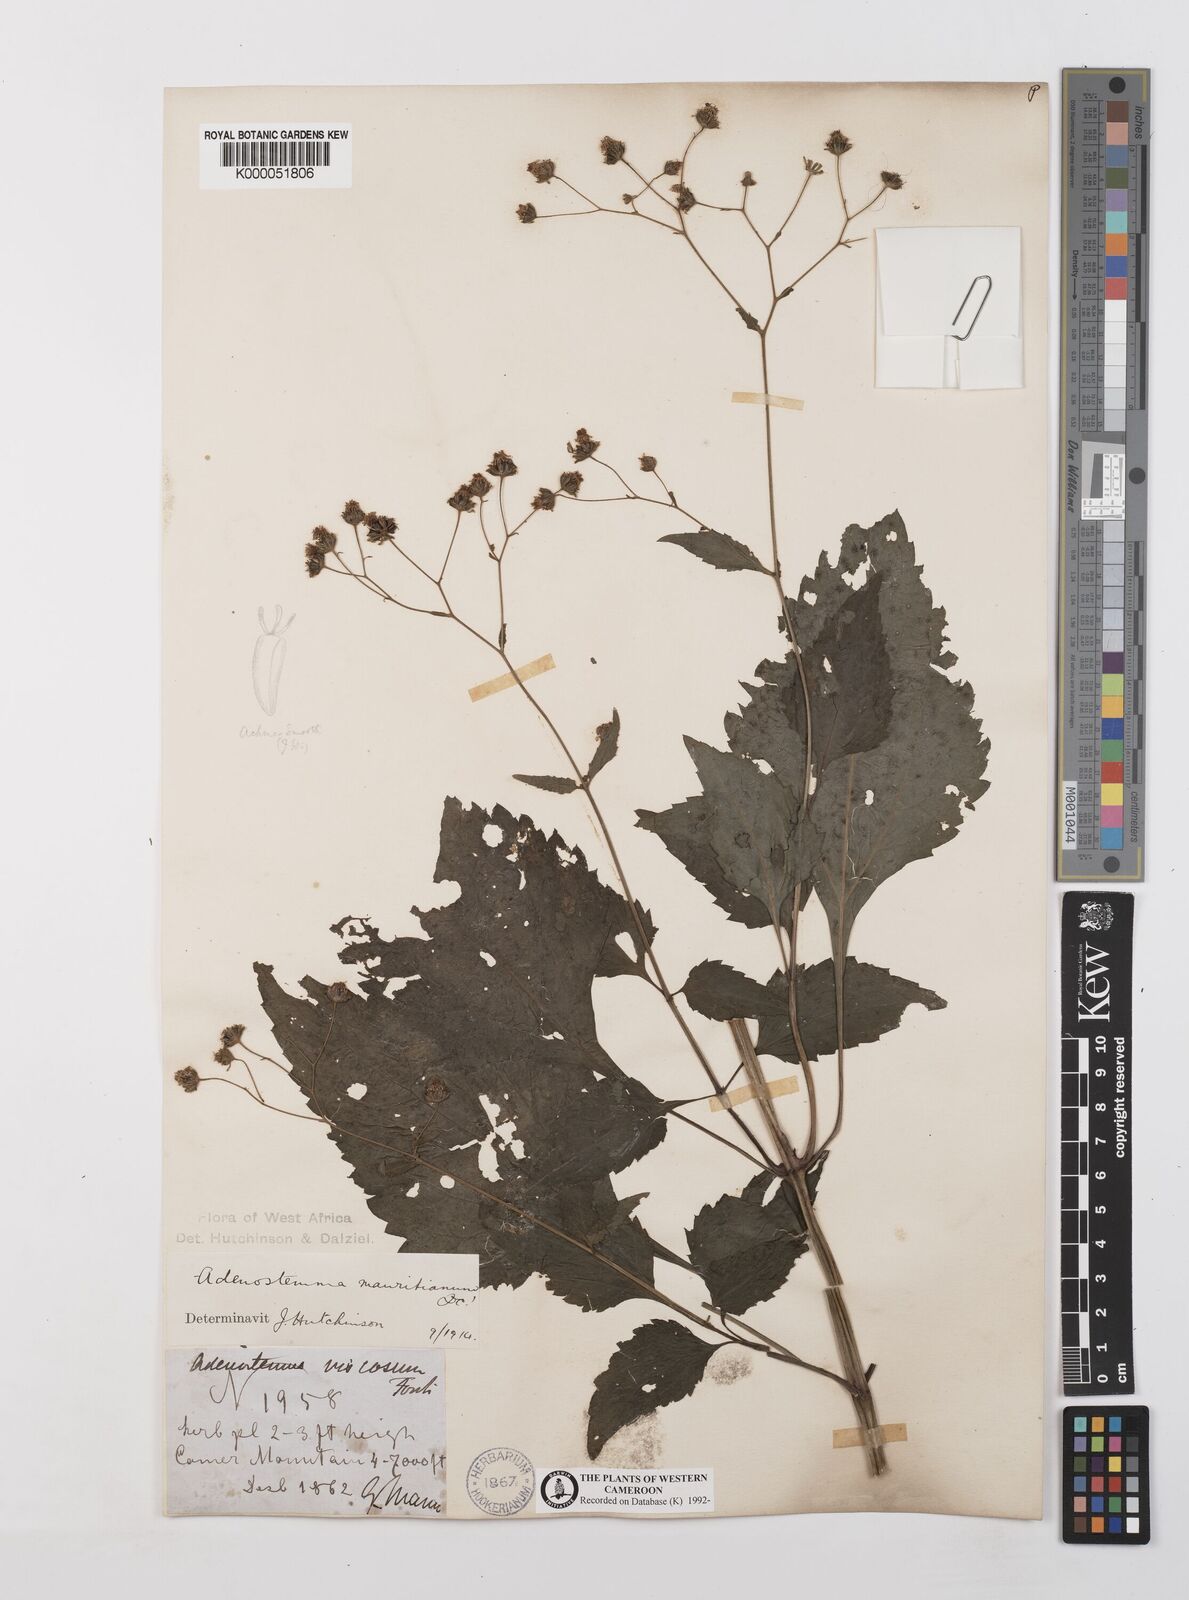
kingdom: Plantae
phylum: Tracheophyta
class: Magnoliopsida
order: Asterales
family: Asteraceae
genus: Adenostemma
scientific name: Adenostemma mauritianum
